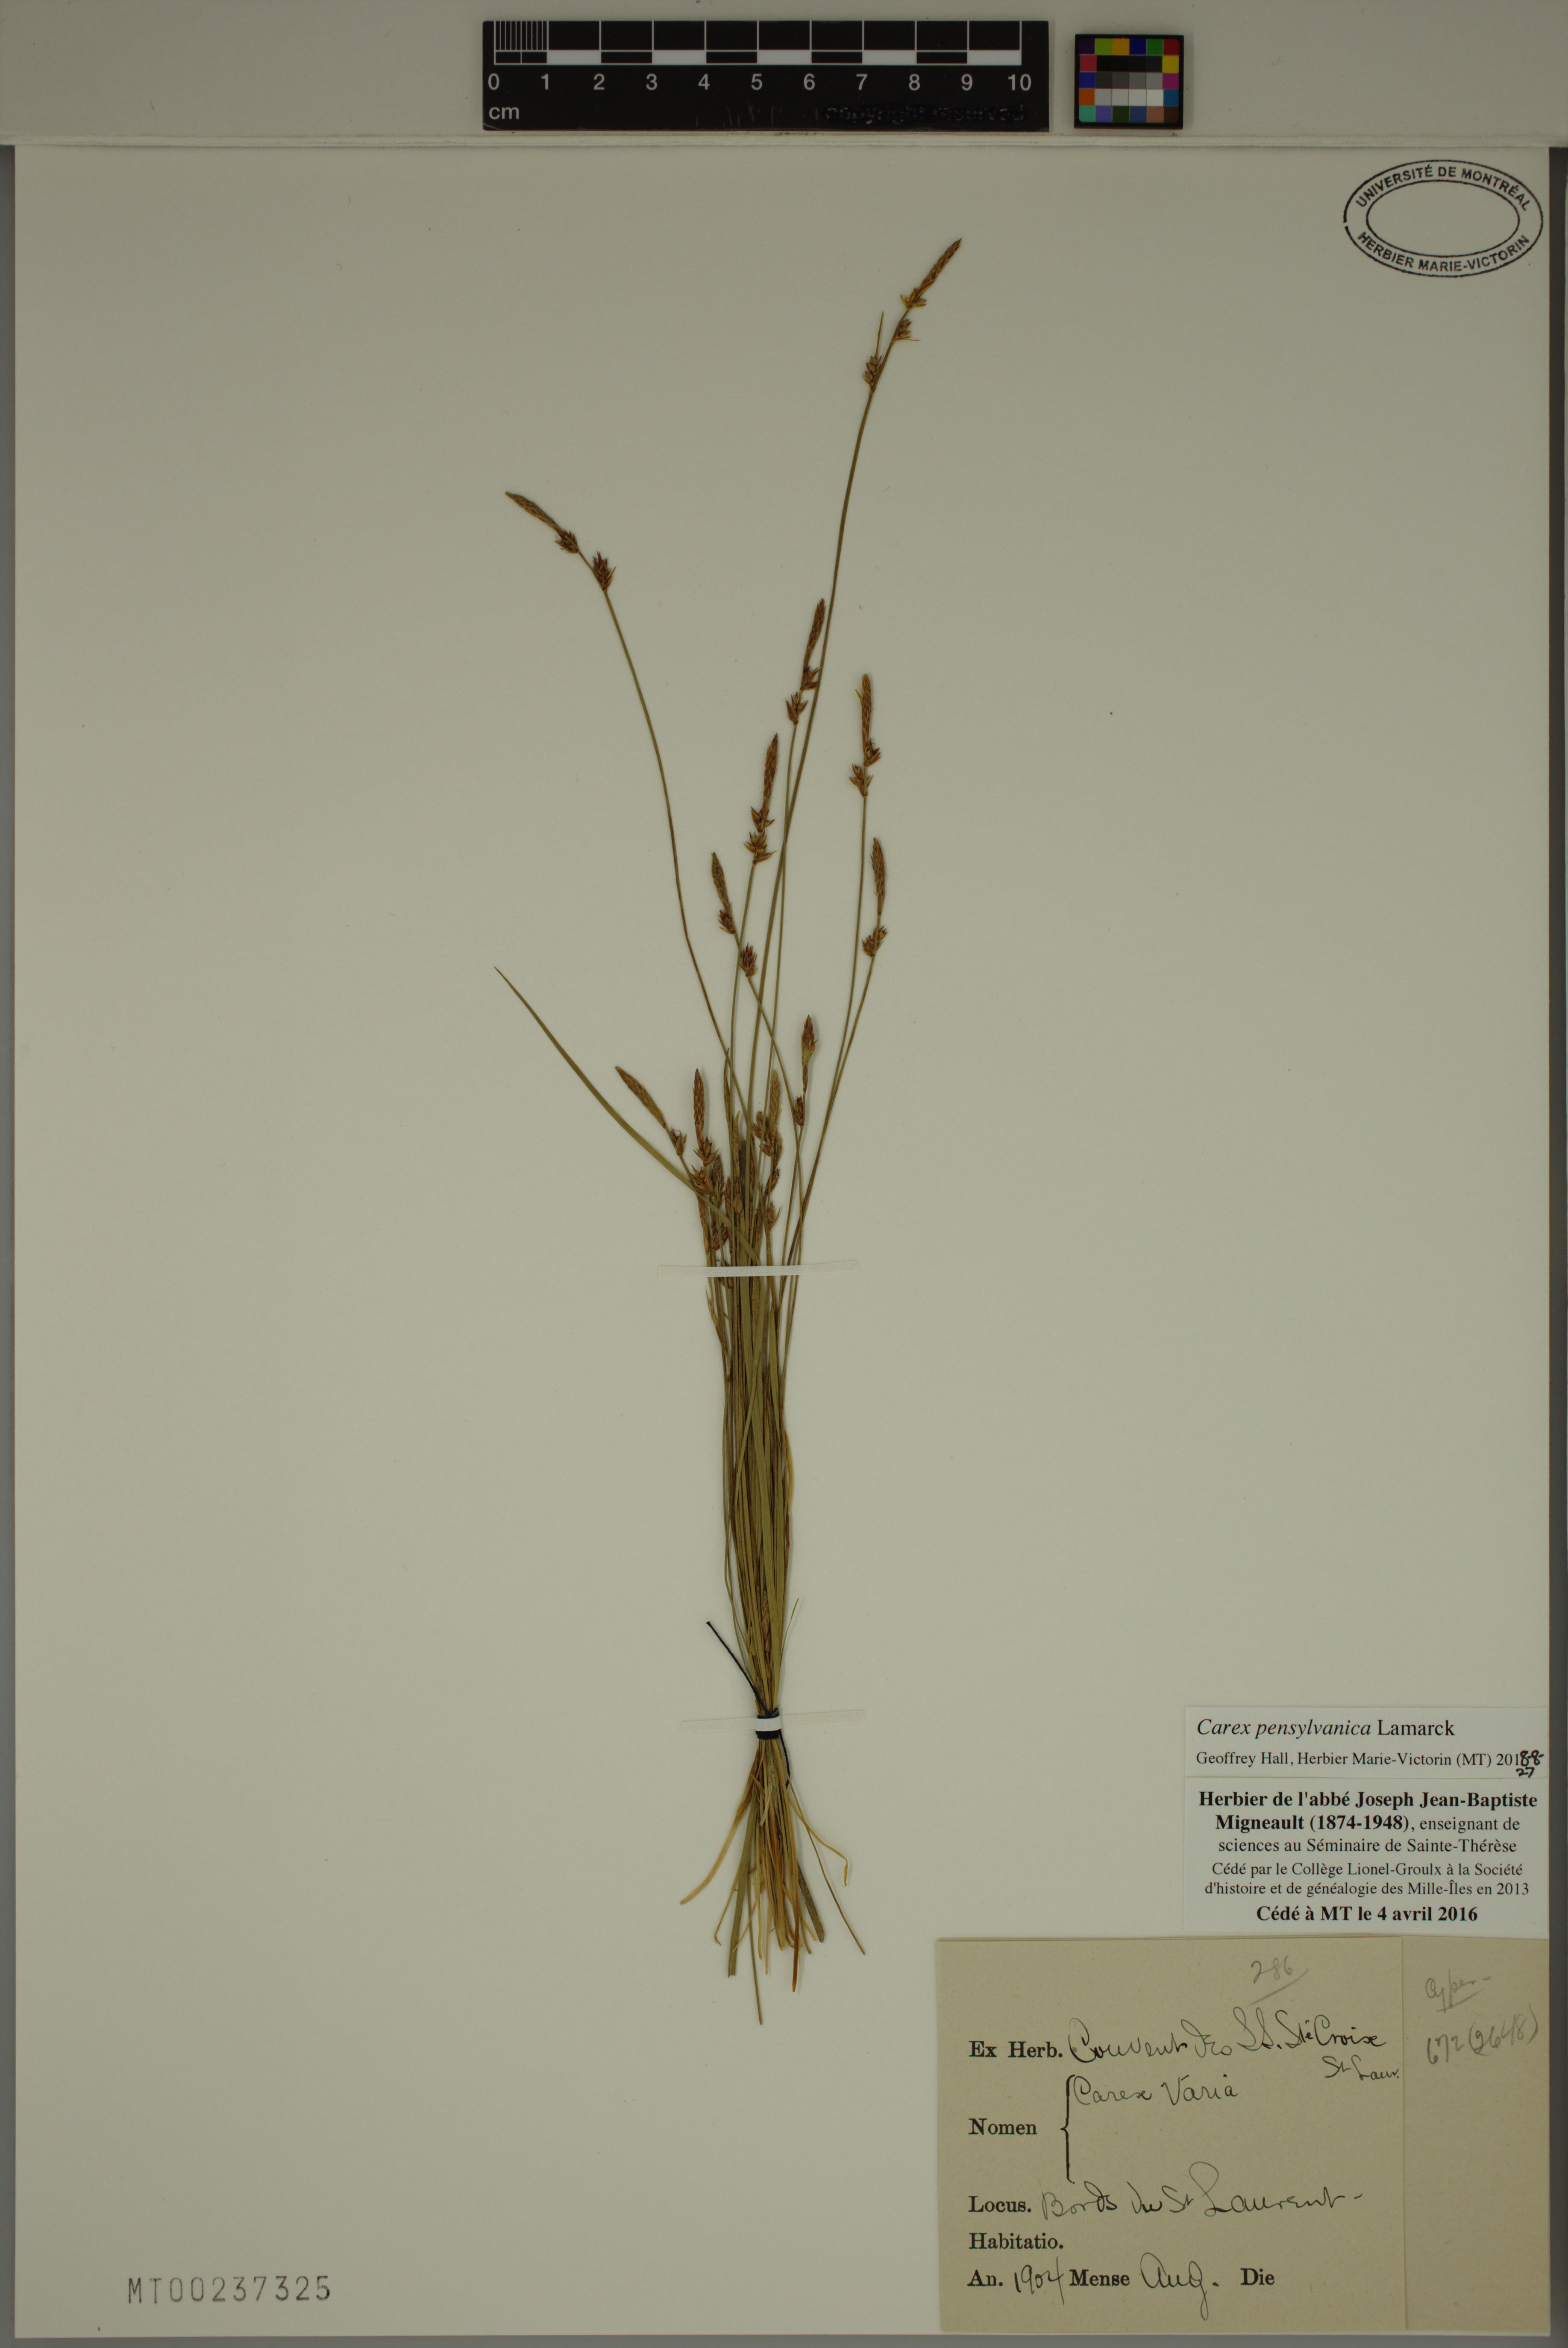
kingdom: Plantae
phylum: Tracheophyta
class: Liliopsida
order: Poales
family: Cyperaceae
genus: Carex
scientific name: Carex pensylvanica
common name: Common oak sedge
